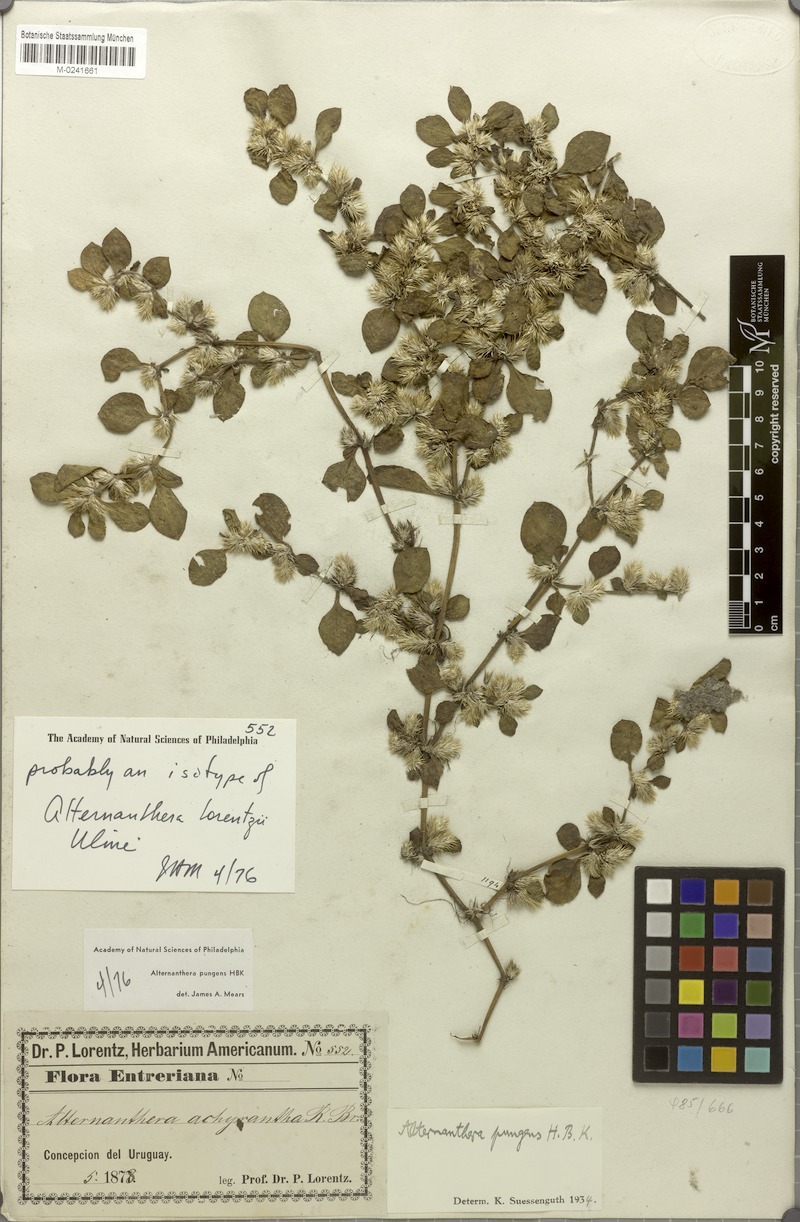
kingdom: Plantae
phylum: Tracheophyta
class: Magnoliopsida
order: Caryophyllales
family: Amaranthaceae
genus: Alternanthera
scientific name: Alternanthera pungens
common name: Khakiweed
